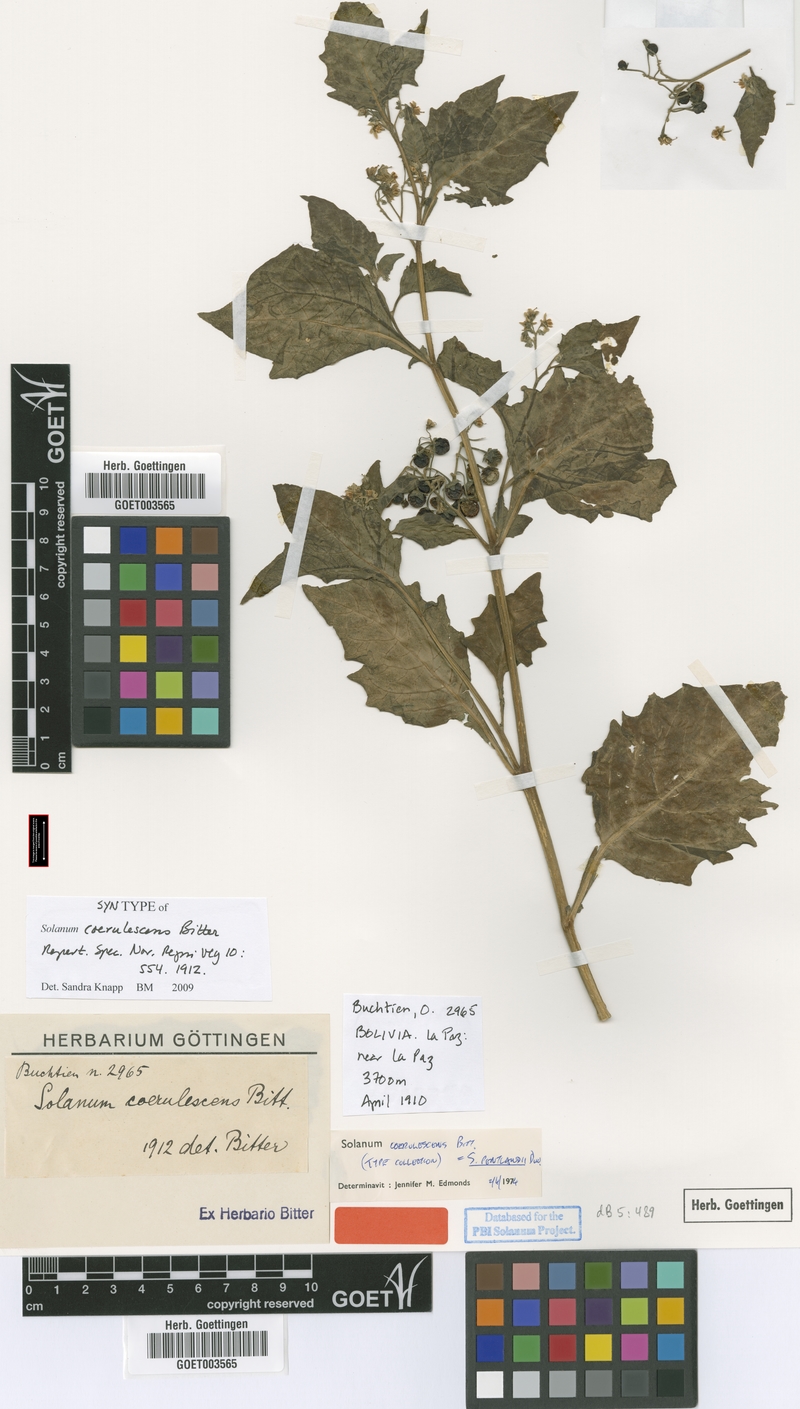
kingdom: Plantae
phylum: Tracheophyta
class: Magnoliopsida
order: Solanales
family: Solanaceae
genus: Solanum
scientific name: Solanum pentlandii
